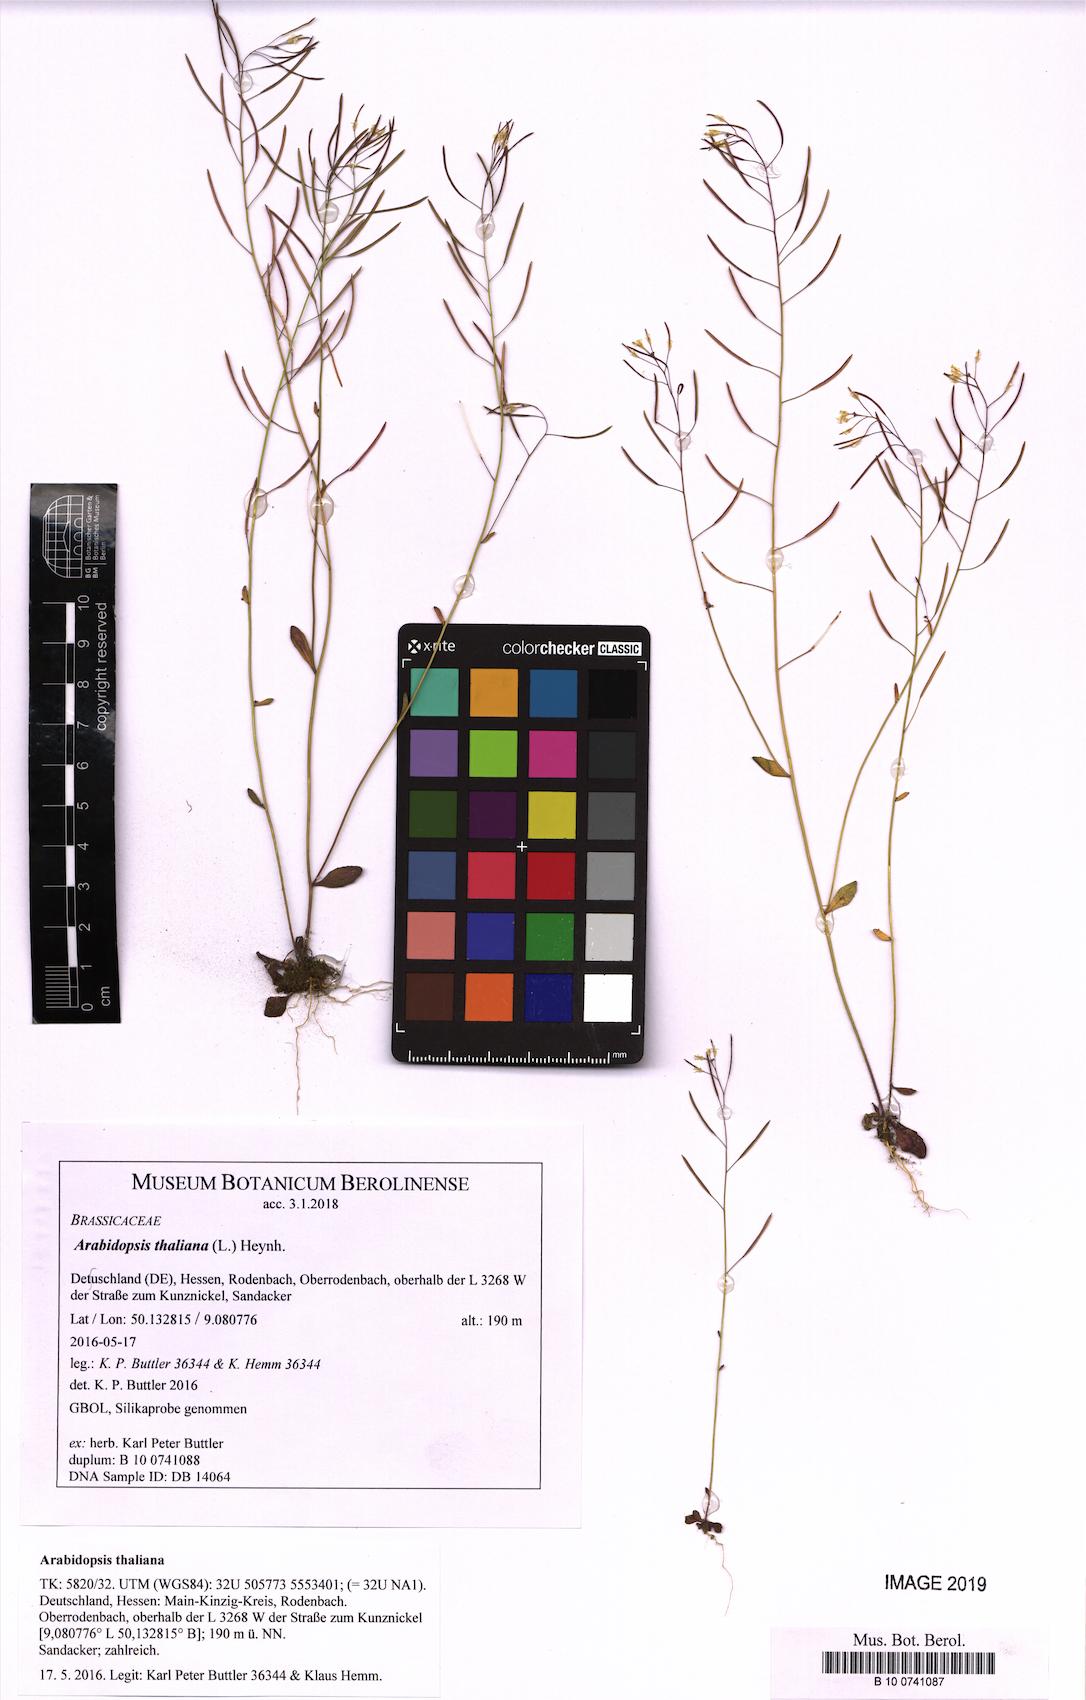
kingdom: Plantae
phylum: Tracheophyta
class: Magnoliopsida
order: Brassicales
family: Brassicaceae
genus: Arabidopsis
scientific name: Arabidopsis thaliana
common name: Thale cress
